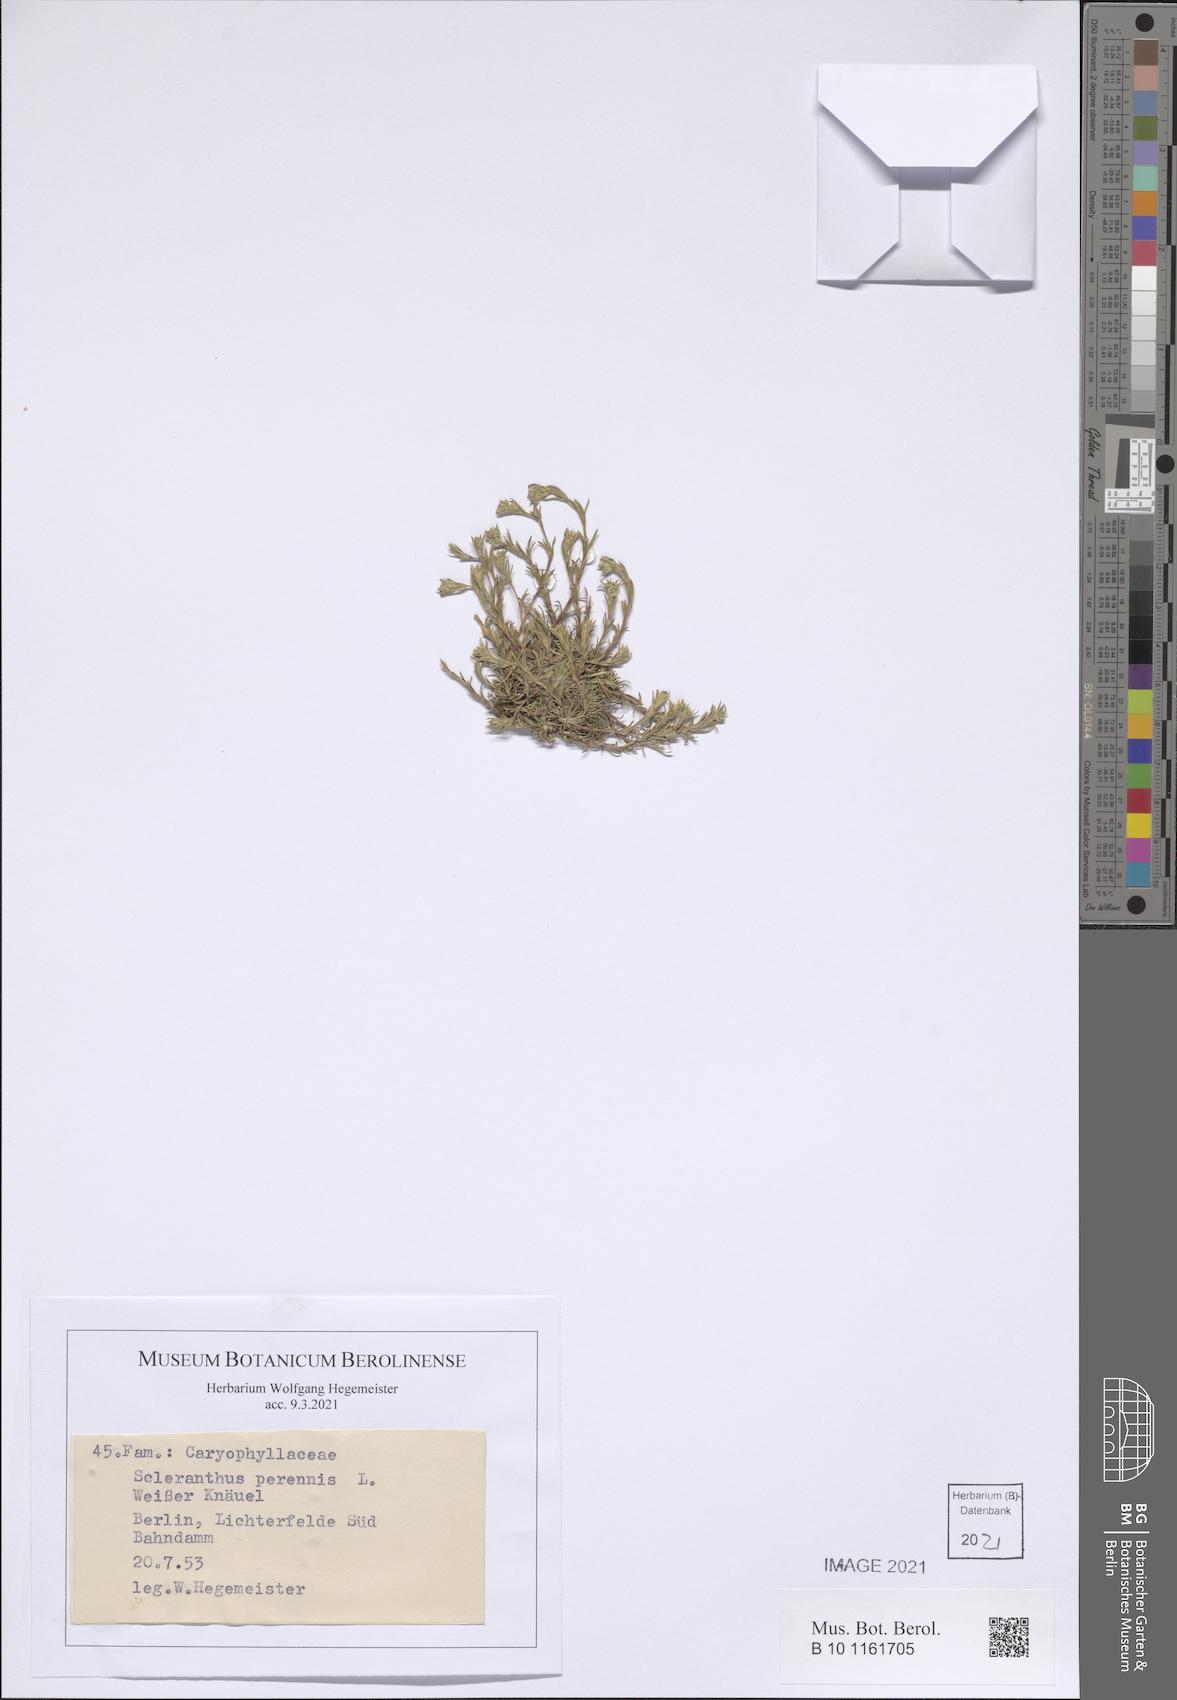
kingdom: Plantae
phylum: Tracheophyta
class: Magnoliopsida
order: Caryophyllales
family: Caryophyllaceae
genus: Scleranthus
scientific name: Scleranthus perennis
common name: Perennial knawel
